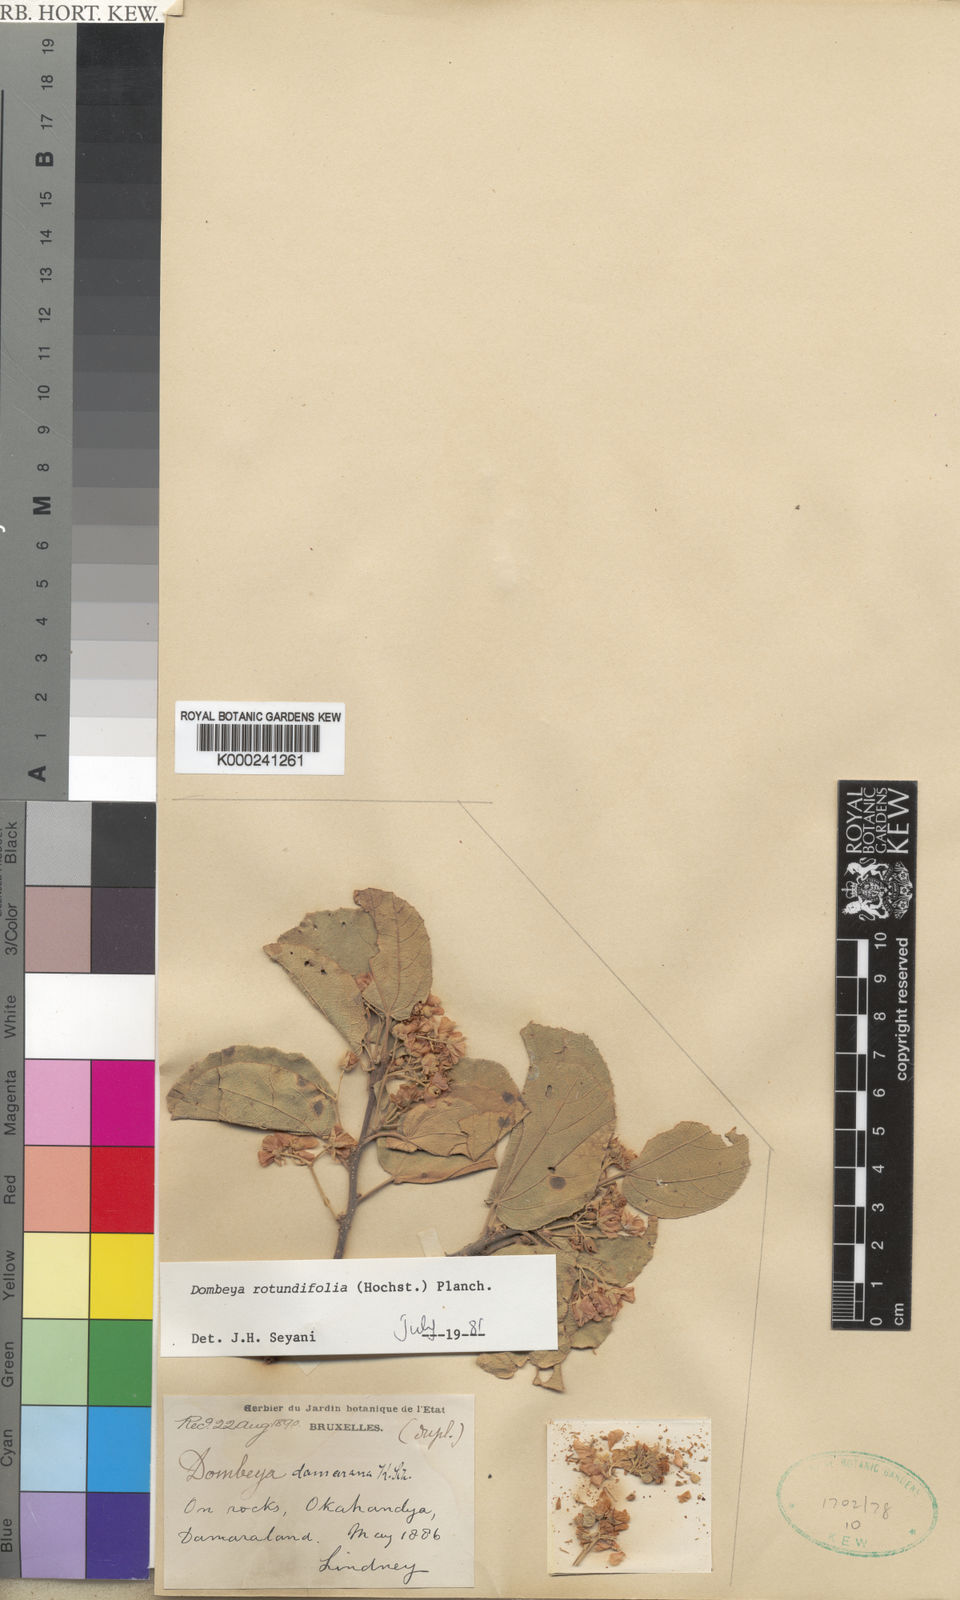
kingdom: Plantae
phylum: Tracheophyta
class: Magnoliopsida
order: Malvales
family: Malvaceae
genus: Dombeya
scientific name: Dombeya rotundifolia
